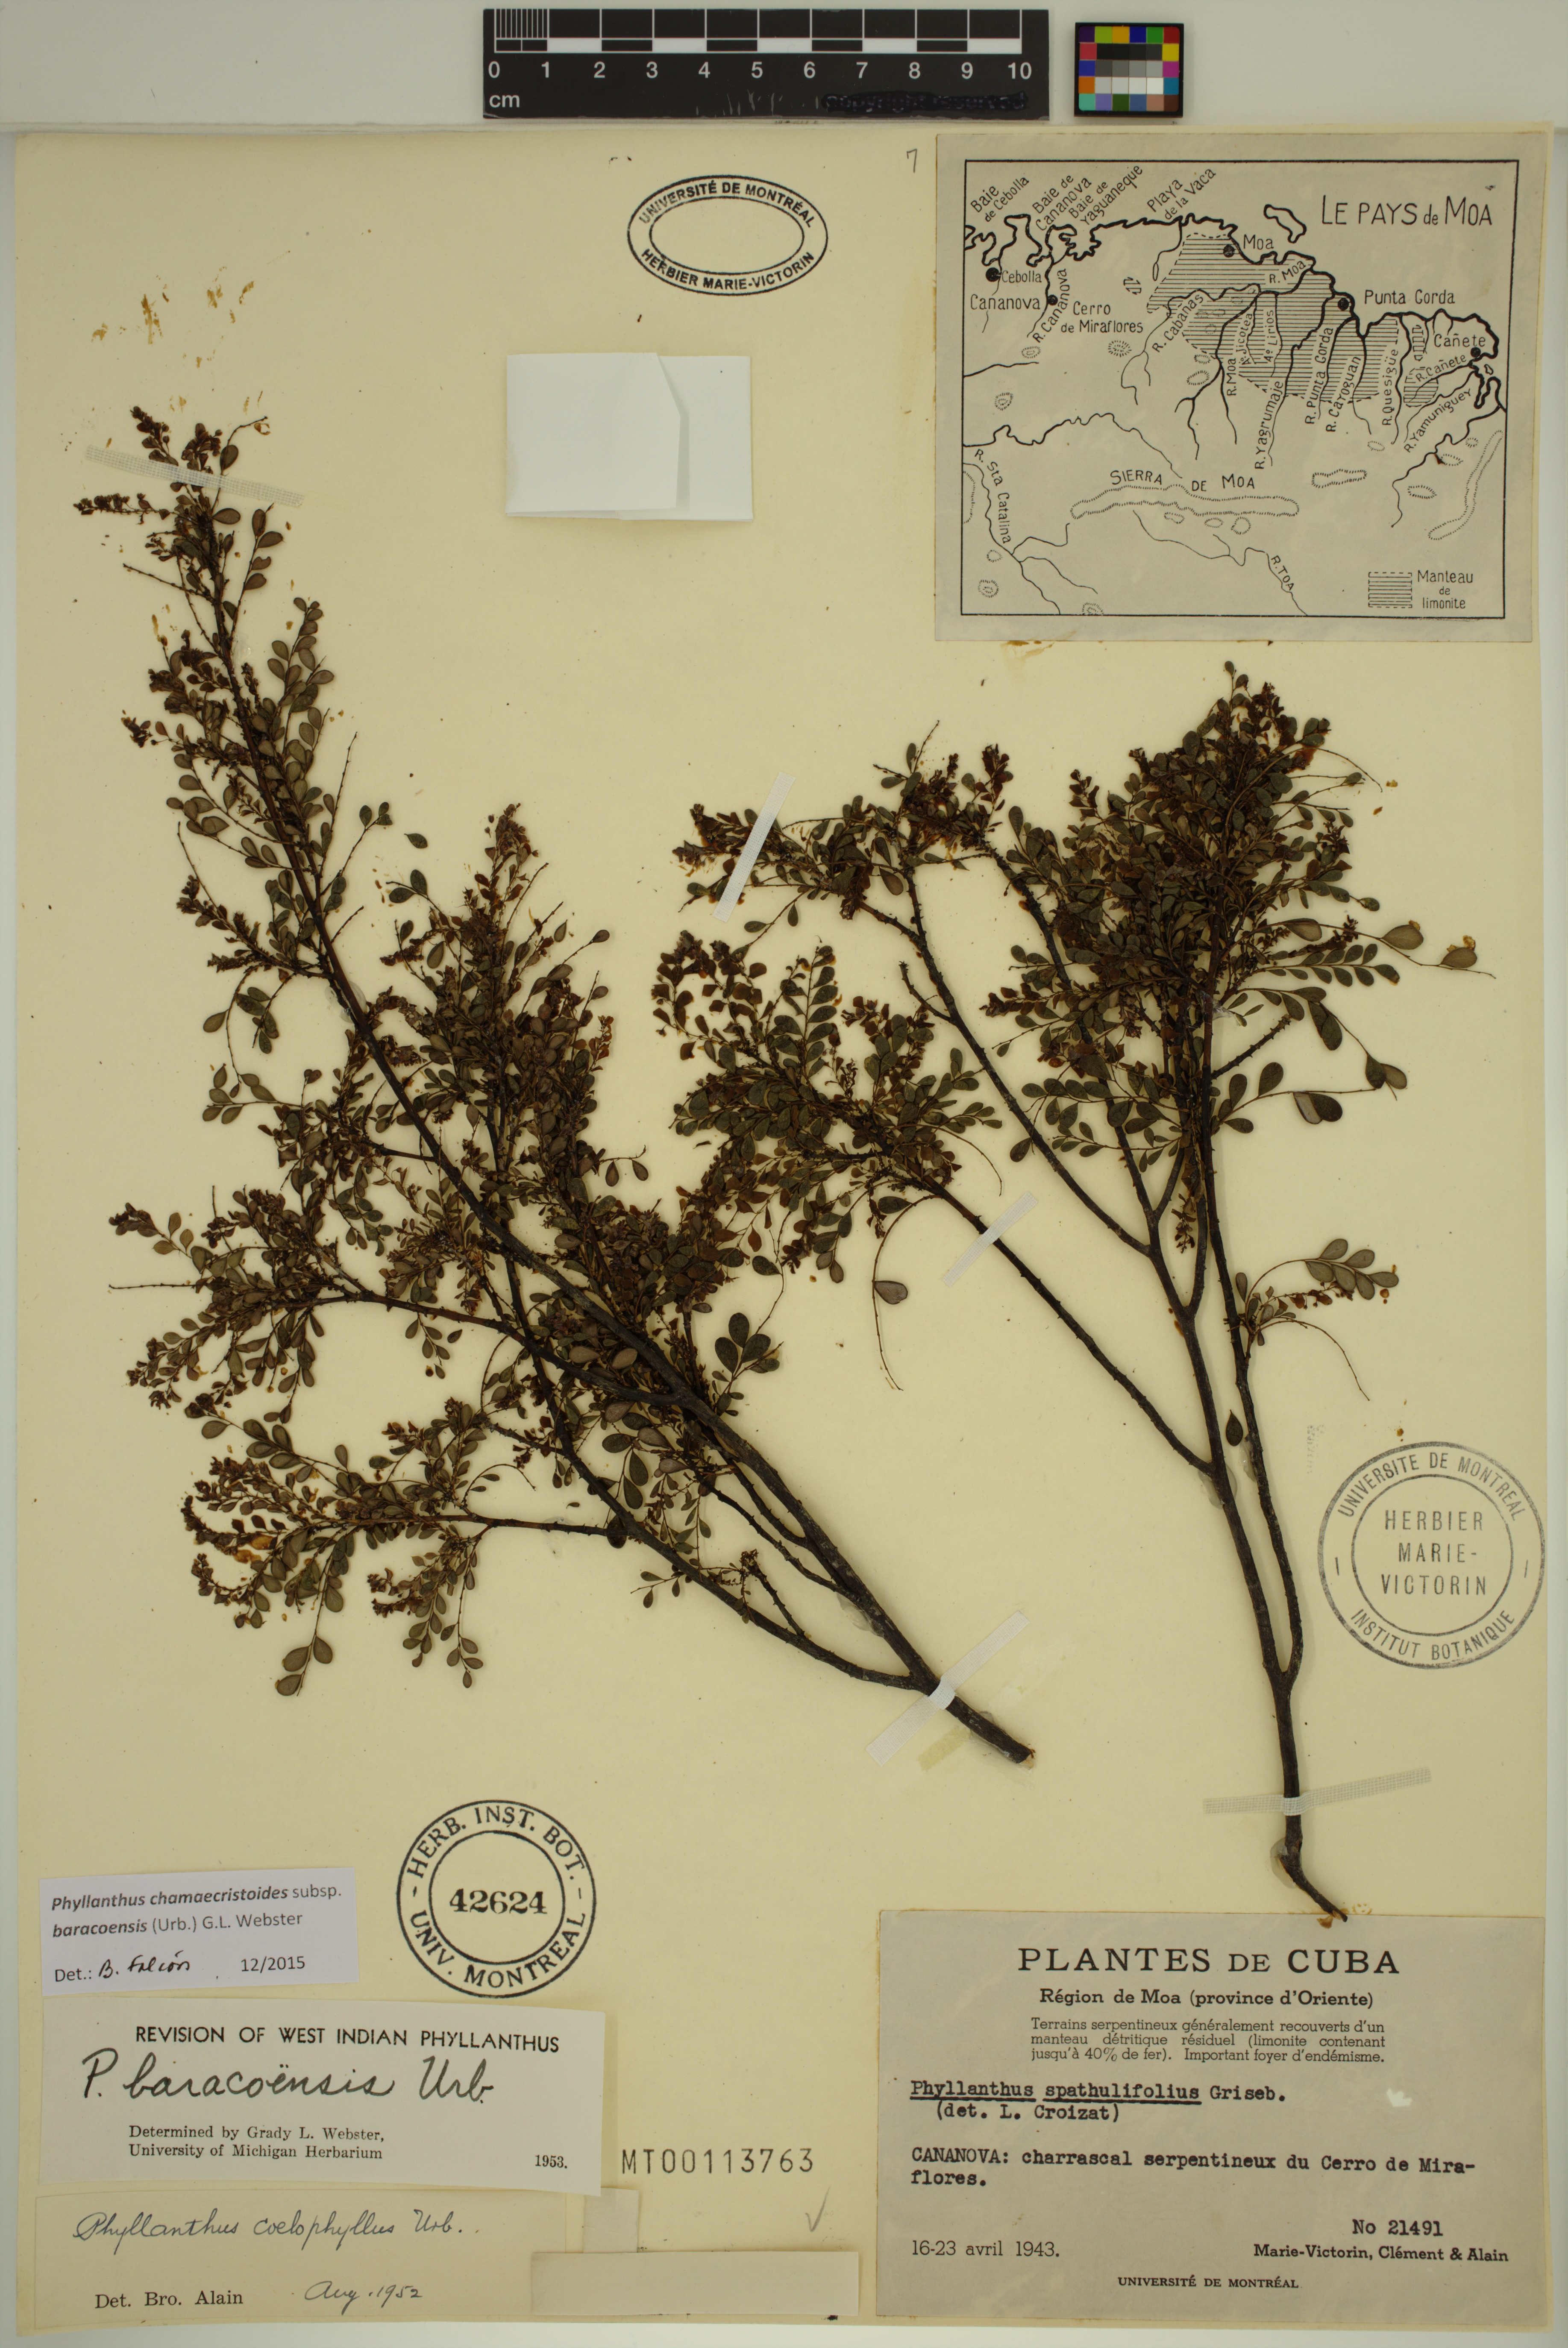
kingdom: Plantae
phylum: Tracheophyta
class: Magnoliopsida
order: Malpighiales
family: Phyllanthaceae
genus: Phyllanthus
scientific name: Phyllanthus chamaecristoides
